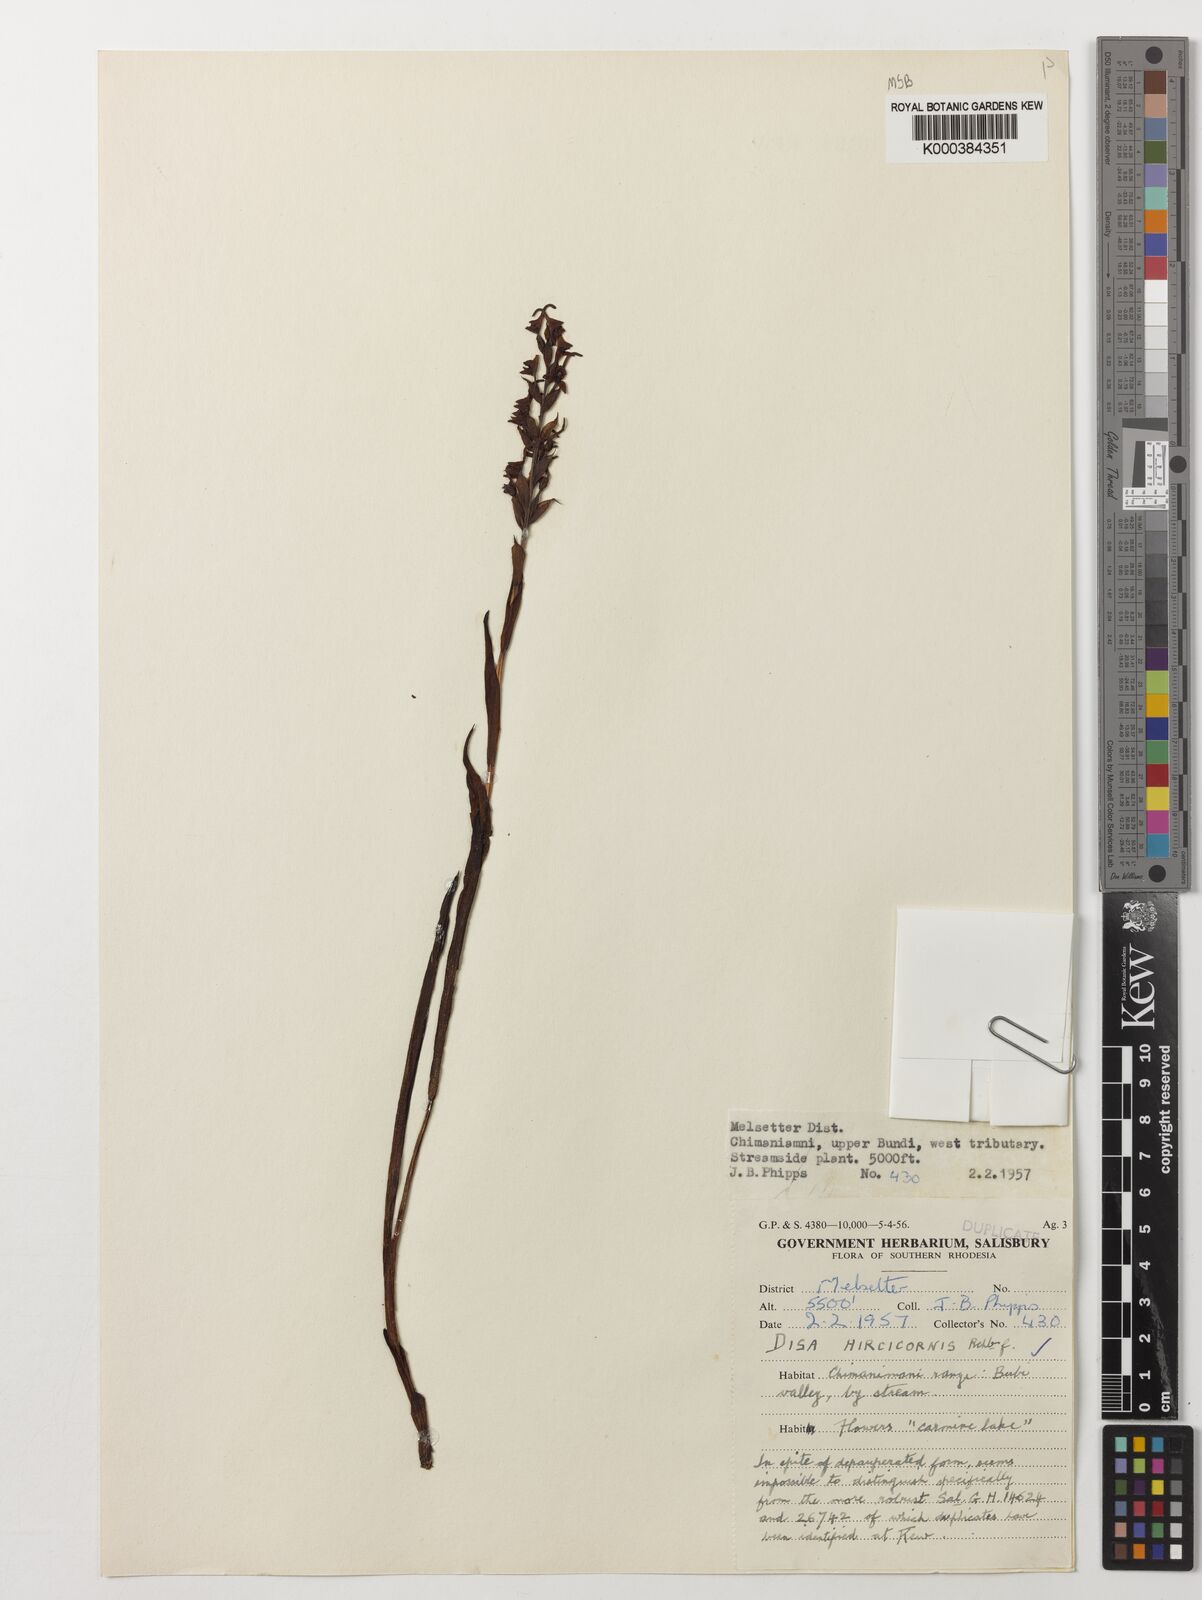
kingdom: Plantae
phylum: Tracheophyta
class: Liliopsida
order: Asparagales
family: Orchidaceae
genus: Disa
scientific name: Disa hircicornis
